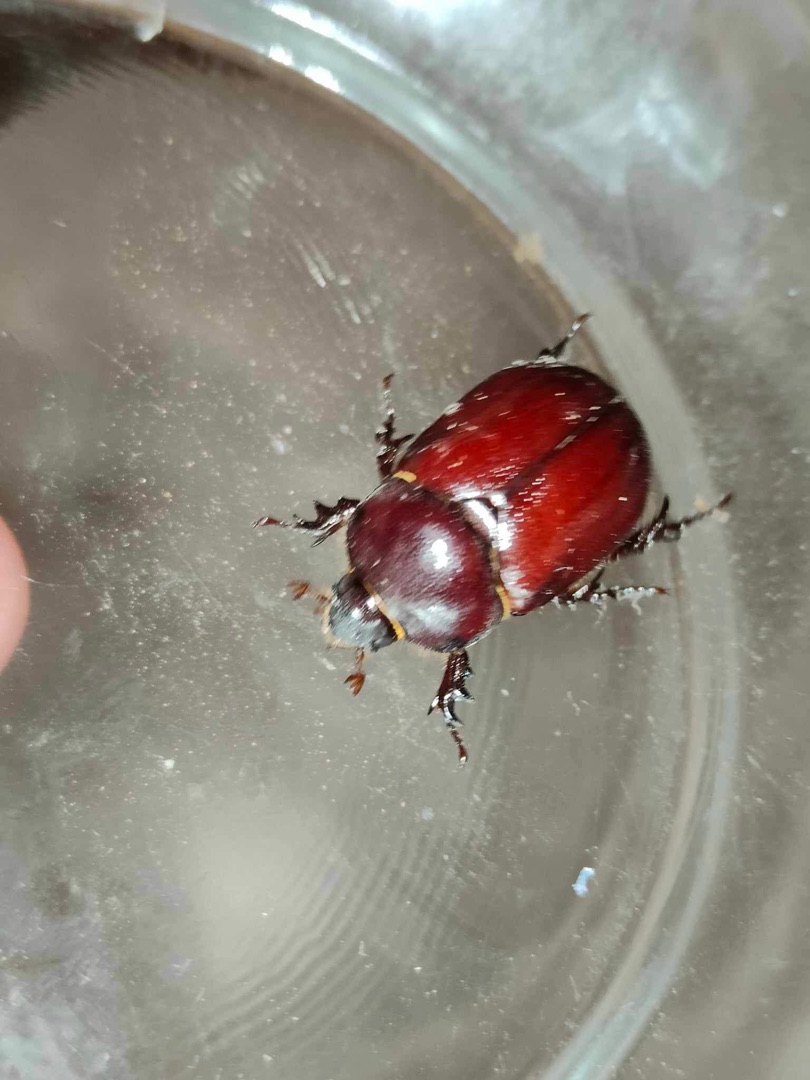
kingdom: Animalia
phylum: Arthropoda
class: Insecta
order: Coleoptera
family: Scarabaeidae
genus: Oryctes
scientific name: Oryctes nasicornis
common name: Næsehornsbille
